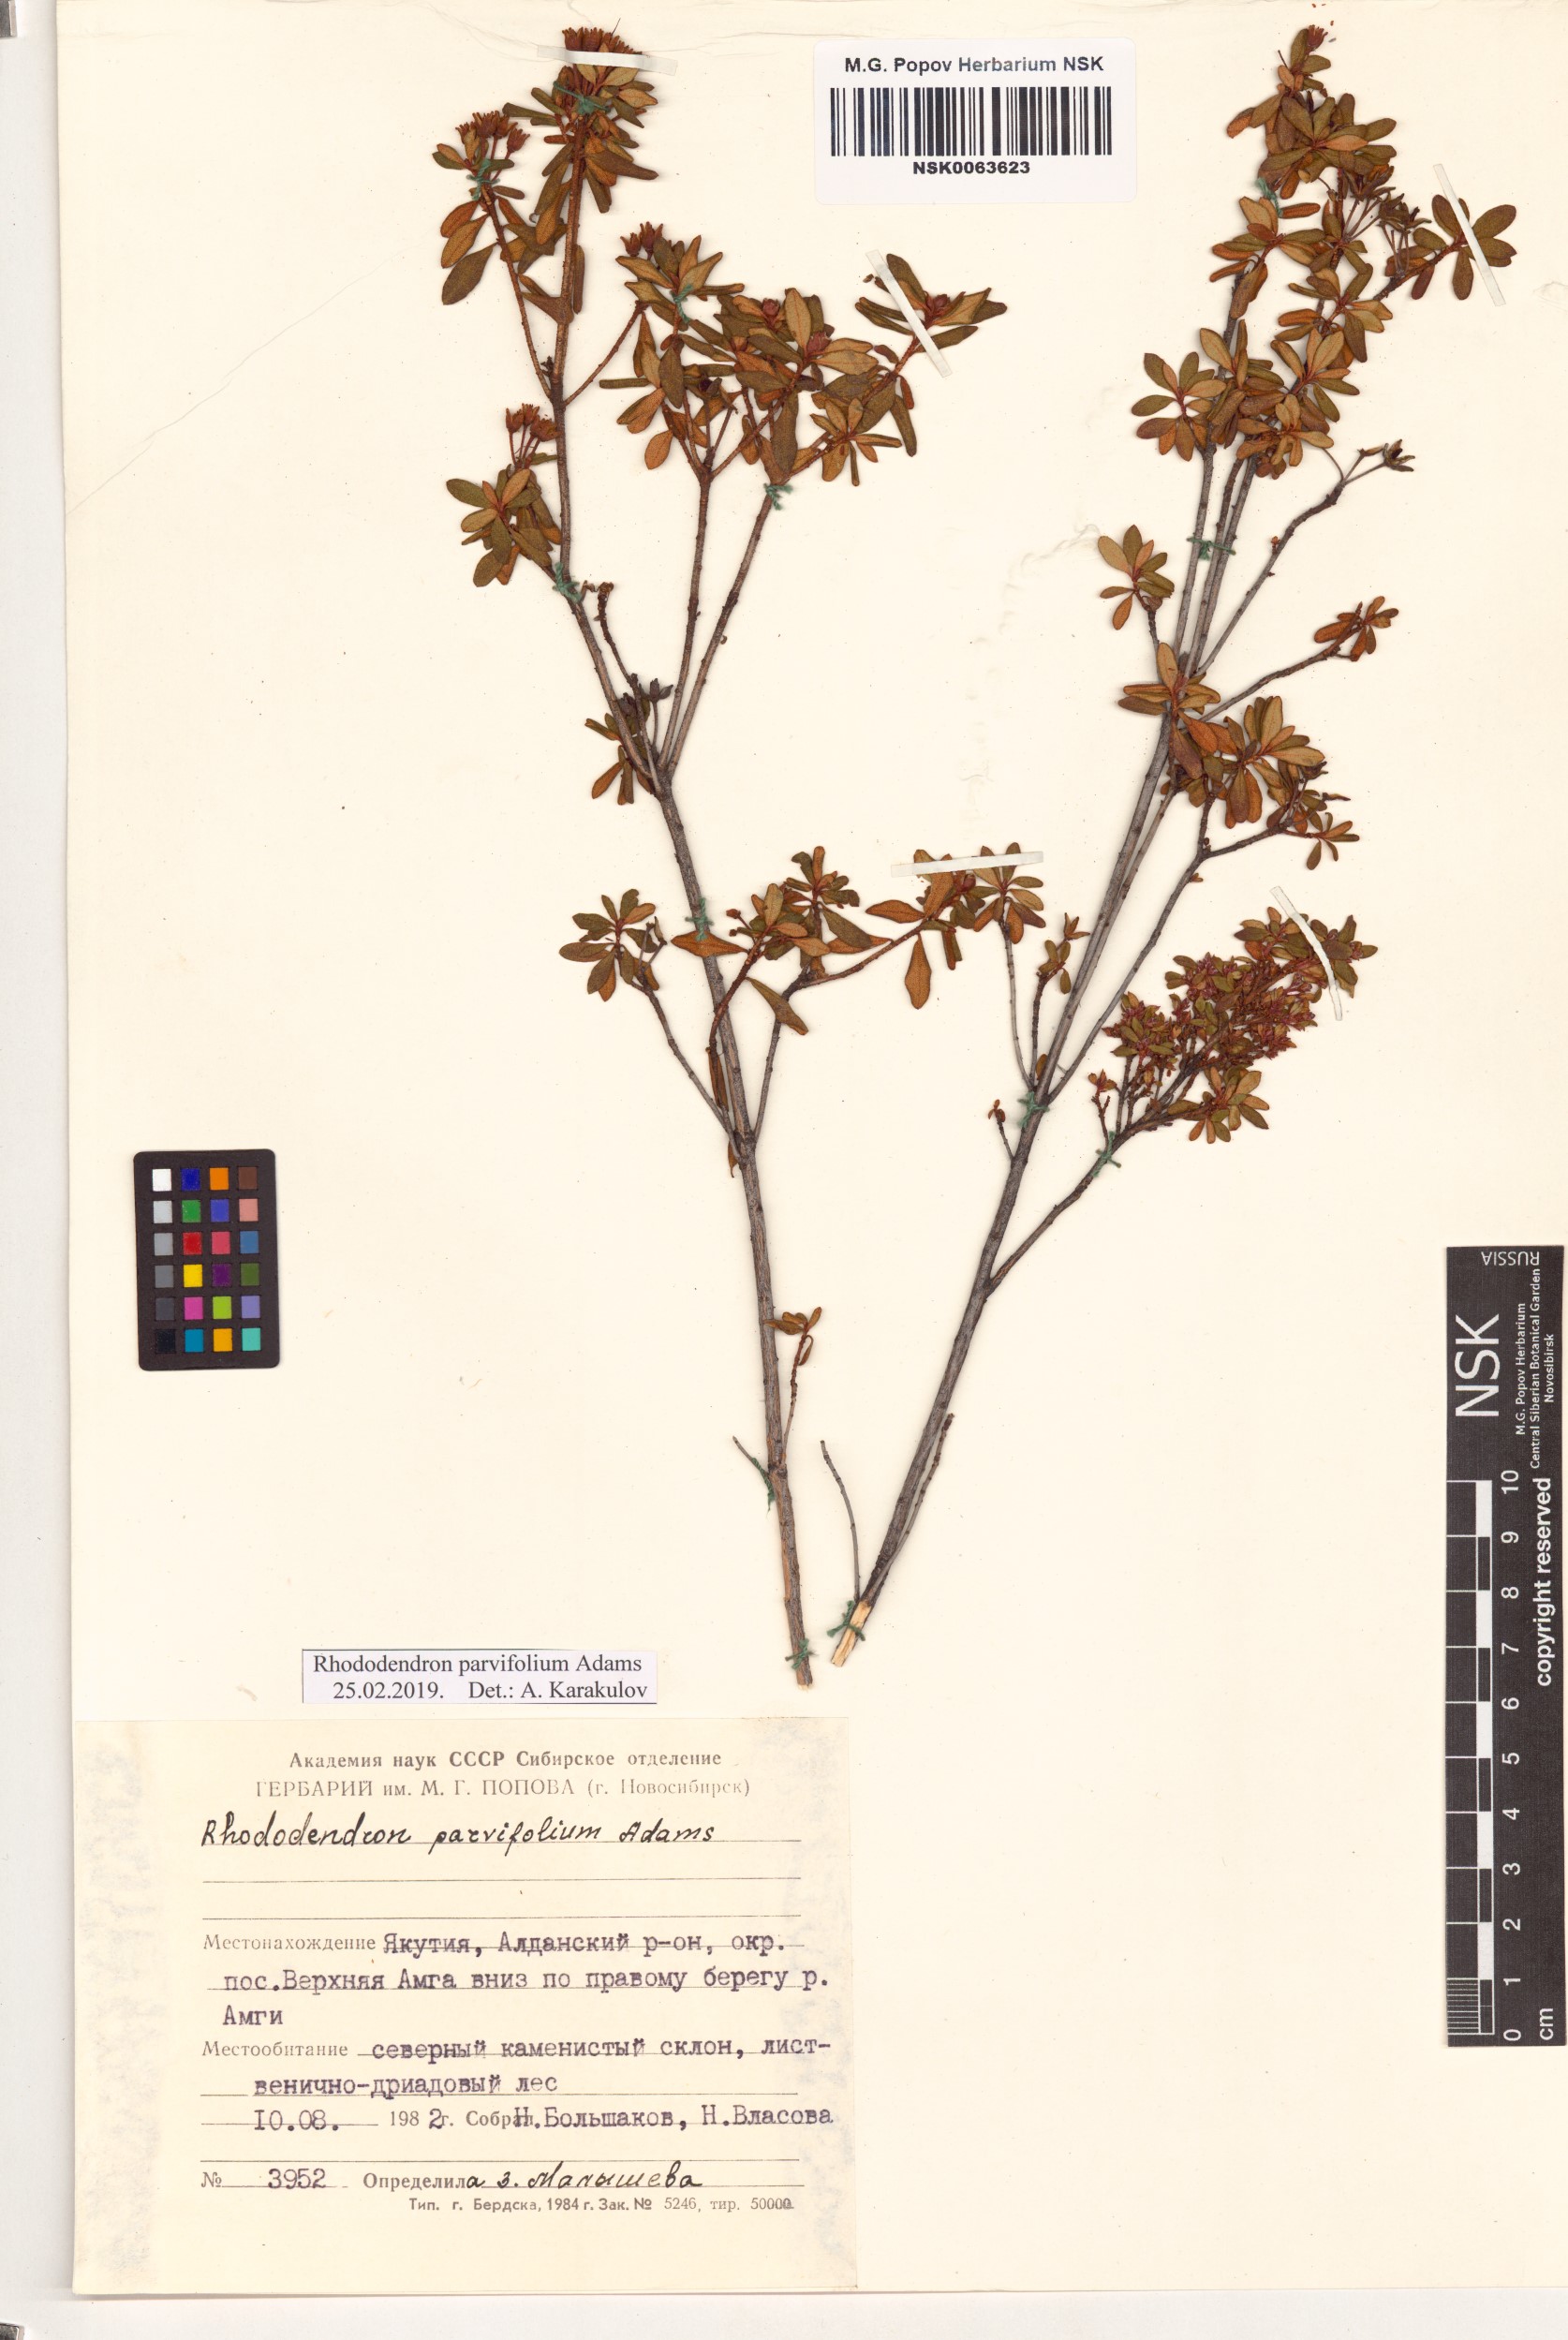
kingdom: Plantae
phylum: Tracheophyta
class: Magnoliopsida
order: Ericales
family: Ericaceae
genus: Rhododendron
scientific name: Rhododendron parvifolium
